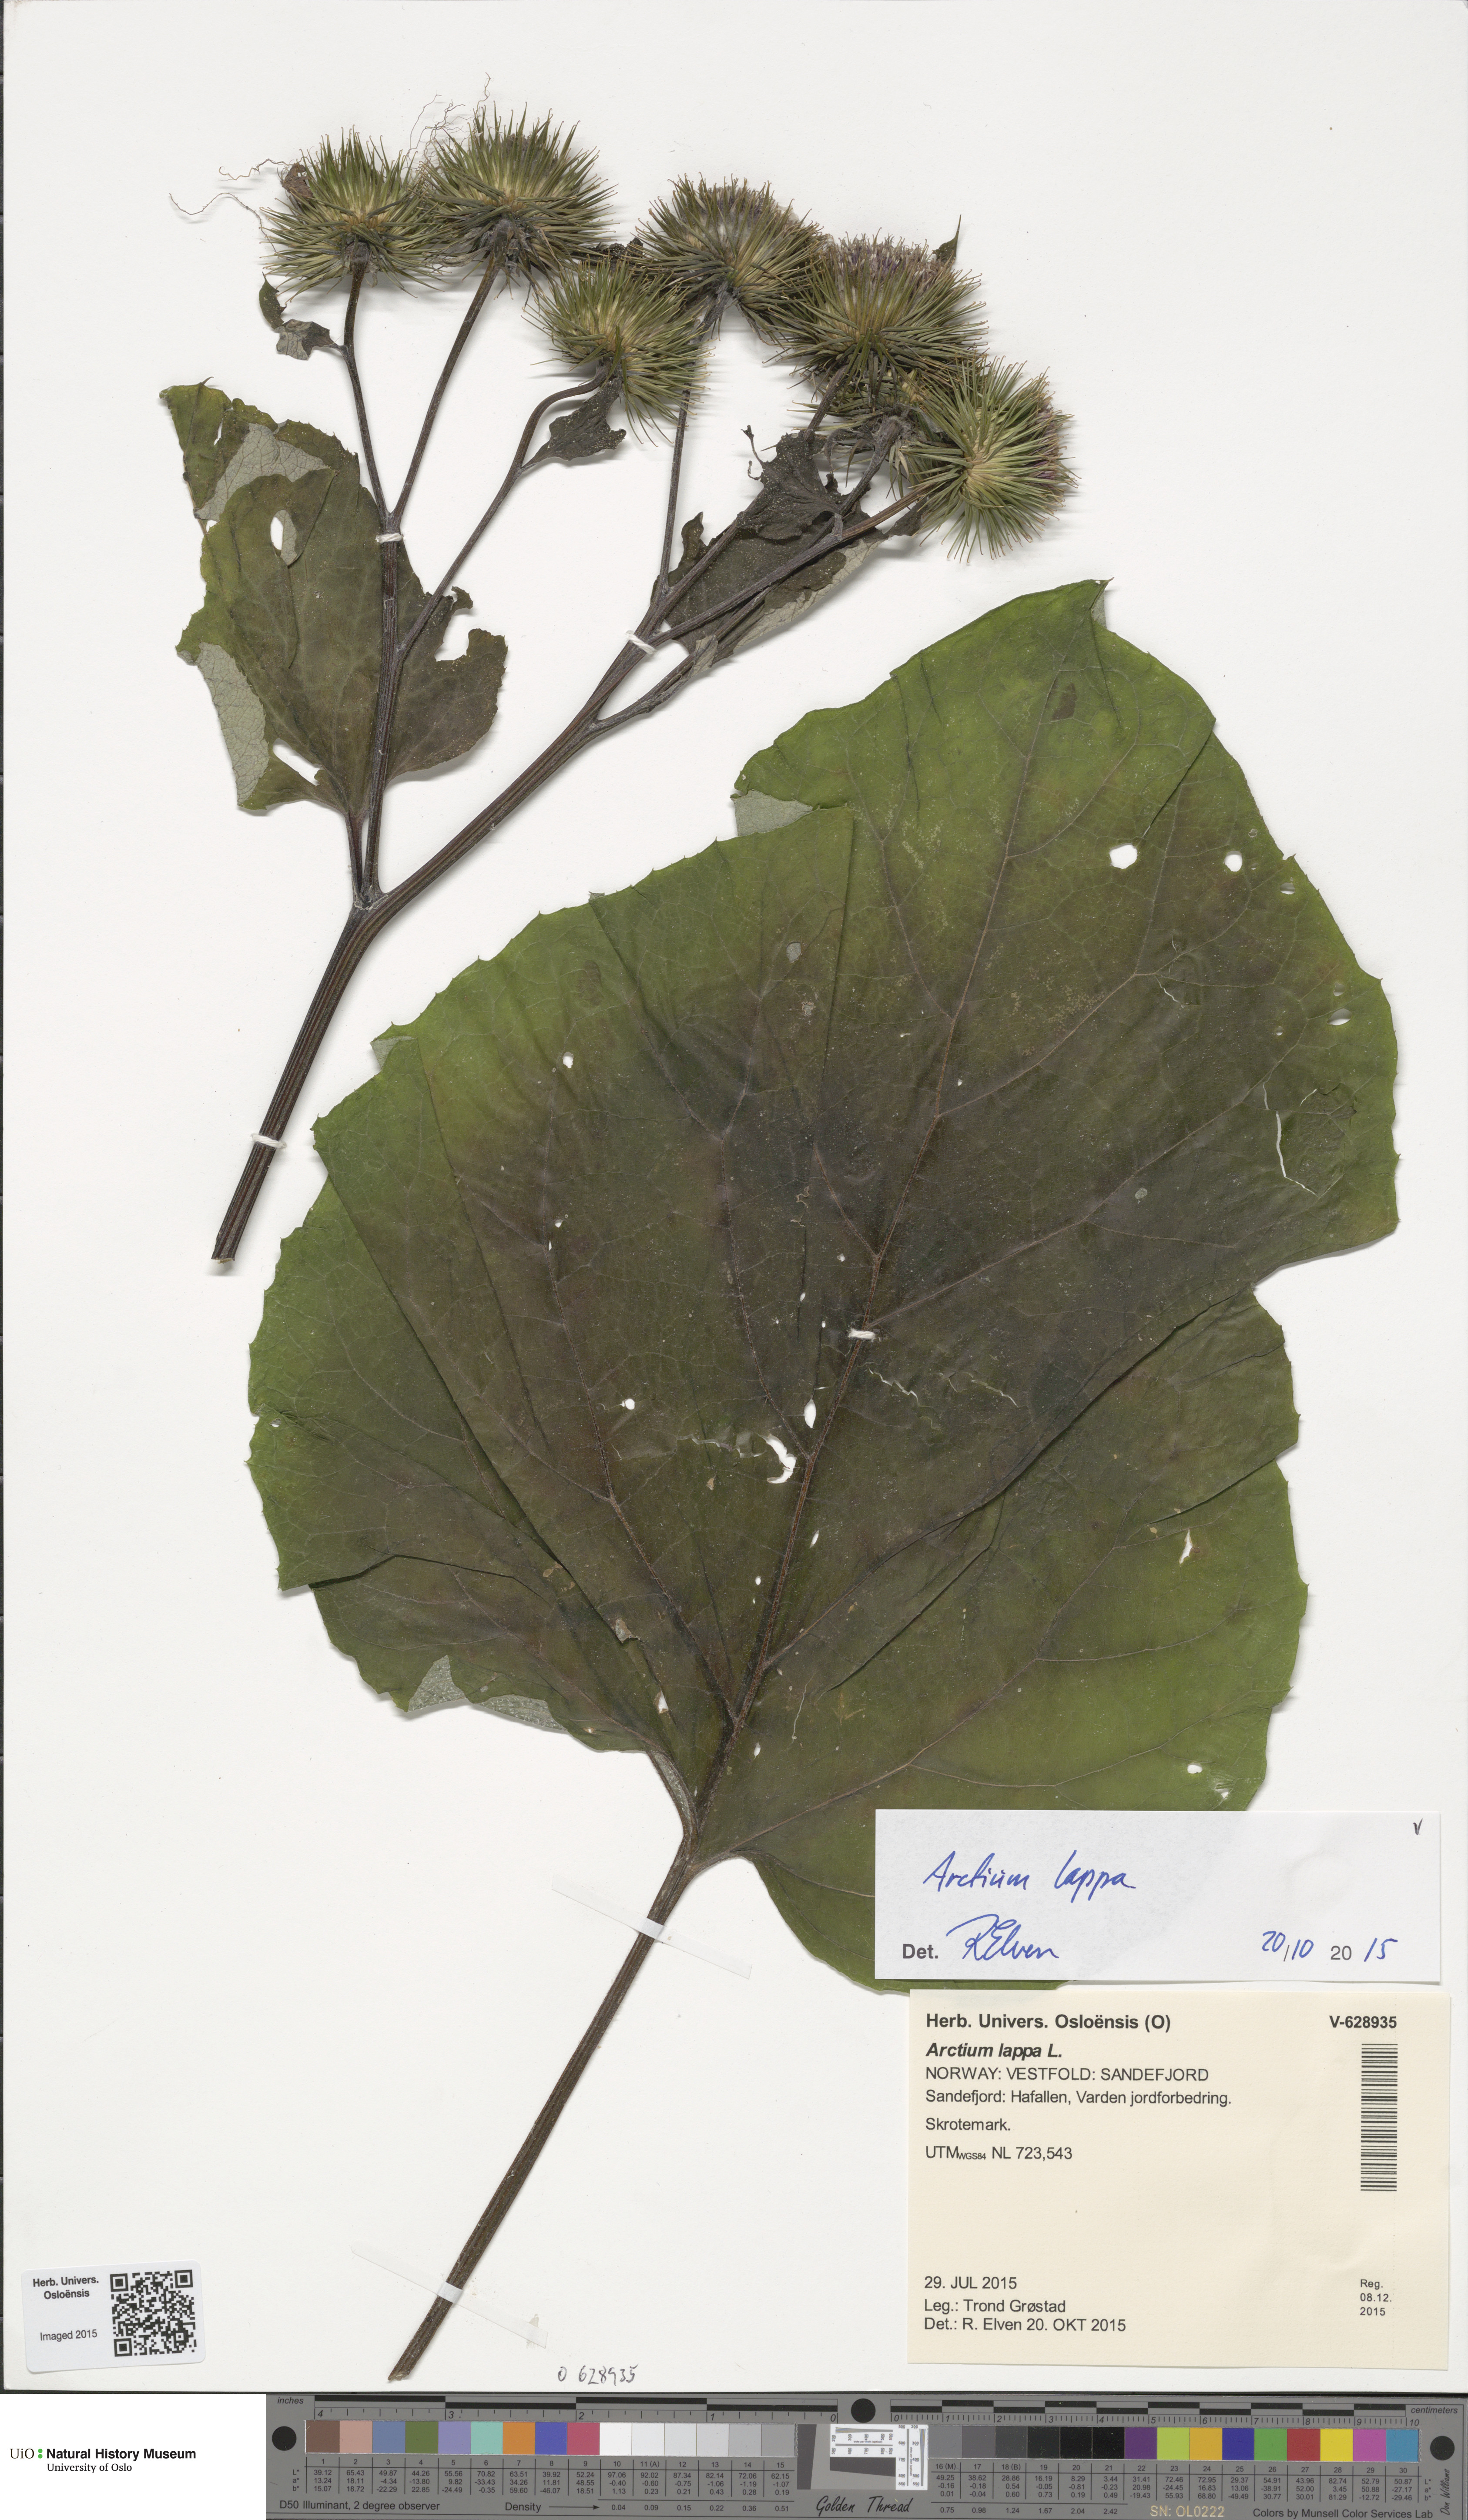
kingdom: Plantae
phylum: Tracheophyta
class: Magnoliopsida
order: Asterales
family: Asteraceae
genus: Arctium
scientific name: Arctium lappa
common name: Greater burdock
